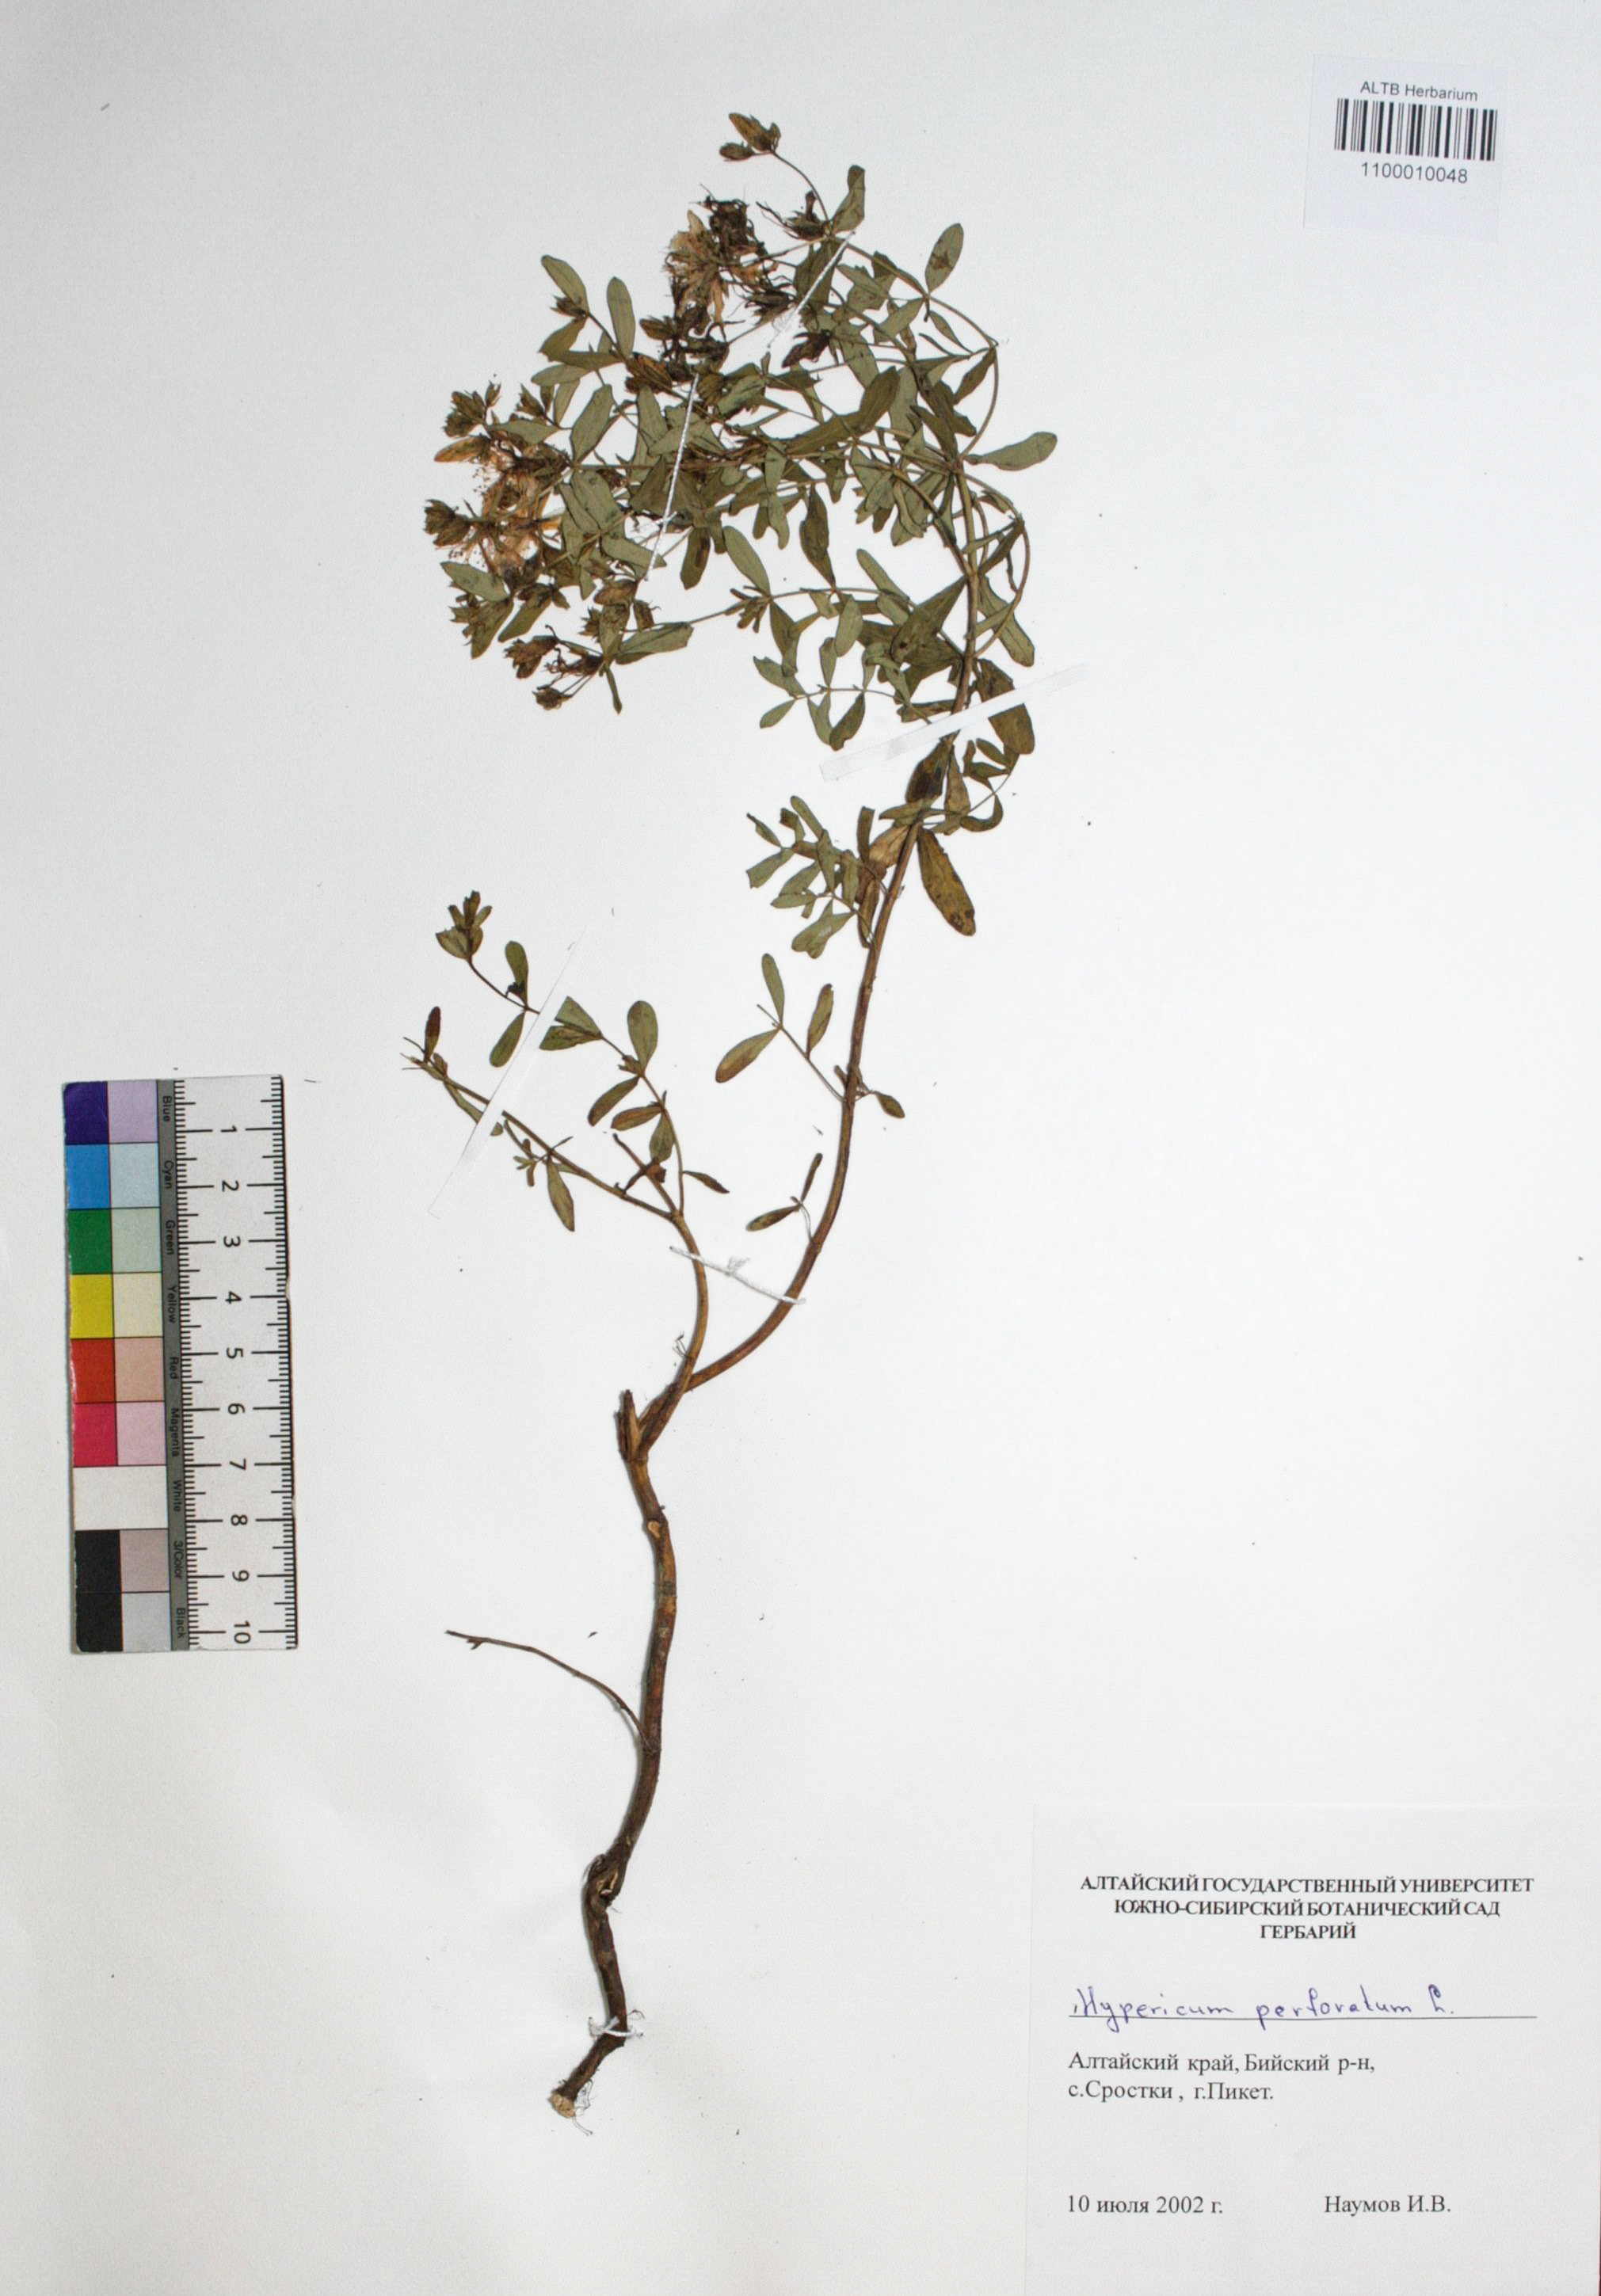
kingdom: Plantae
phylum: Tracheophyta
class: Magnoliopsida
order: Malpighiales
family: Hypericaceae
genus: Hypericum
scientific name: Hypericum perforatum
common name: Common st. johnswort
